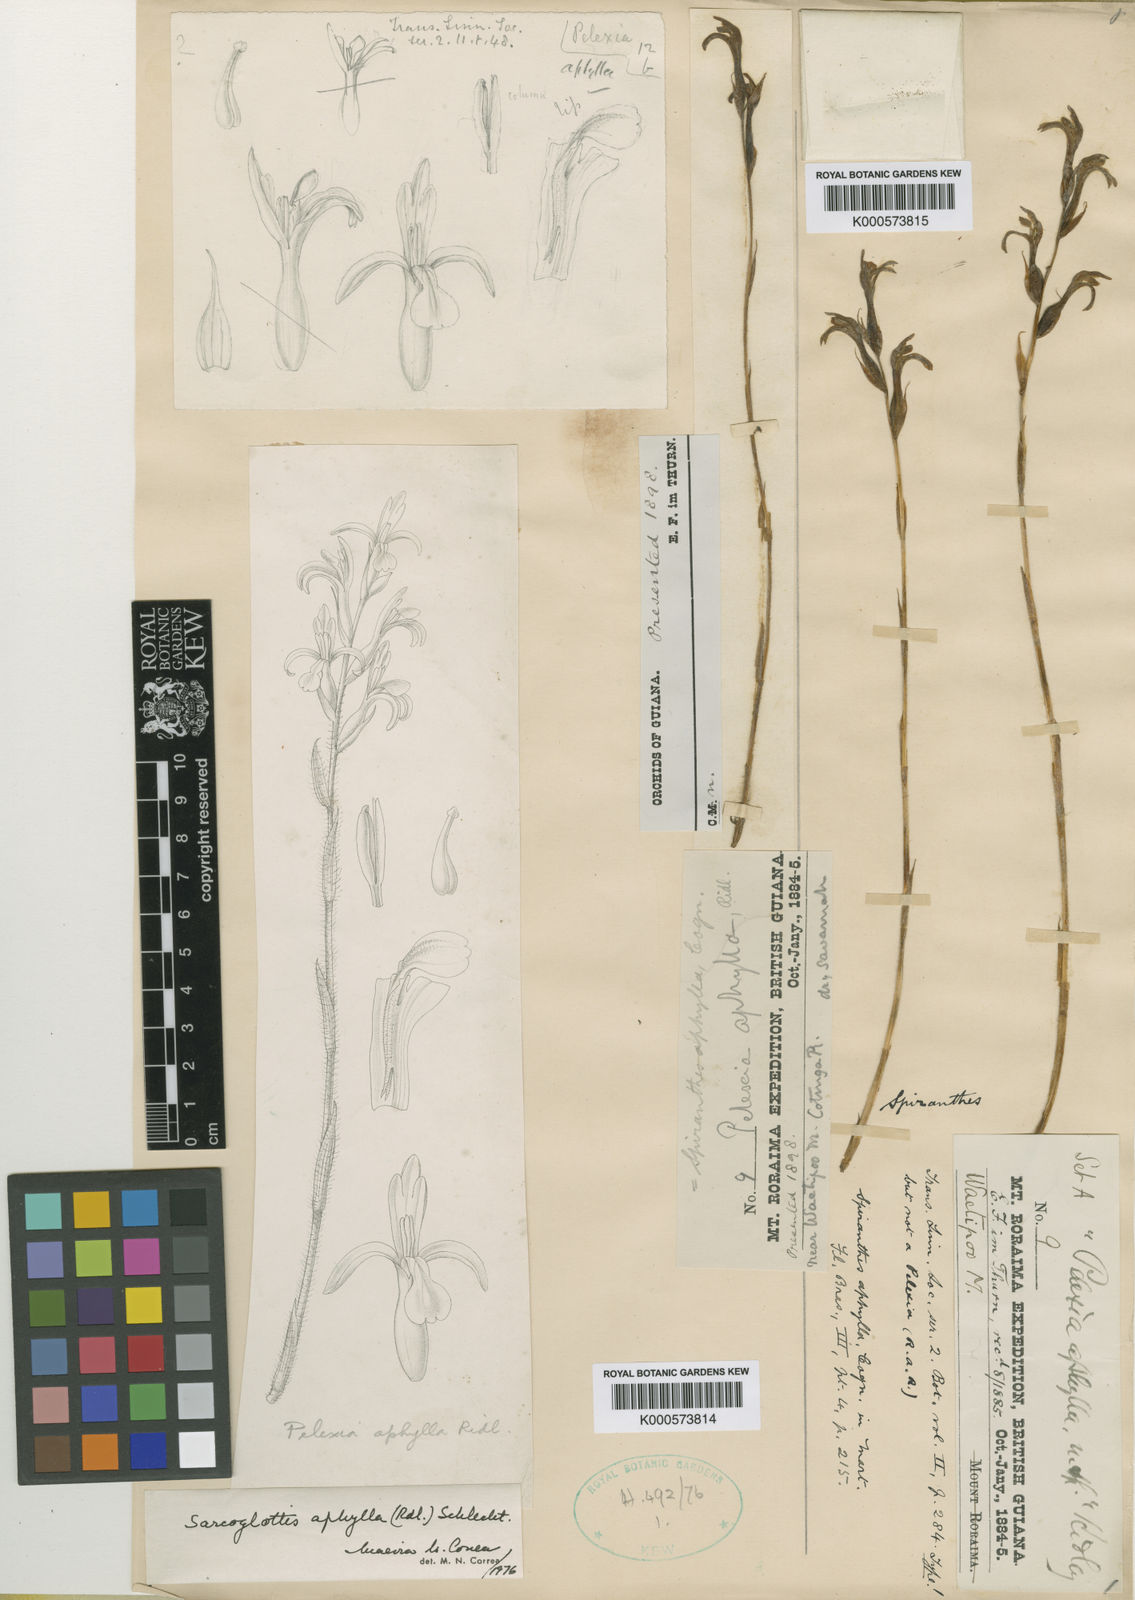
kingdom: Plantae
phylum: Tracheophyta
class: Liliopsida
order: Asparagales
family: Orchidaceae
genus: Veyretia
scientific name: Veyretia aphylla
